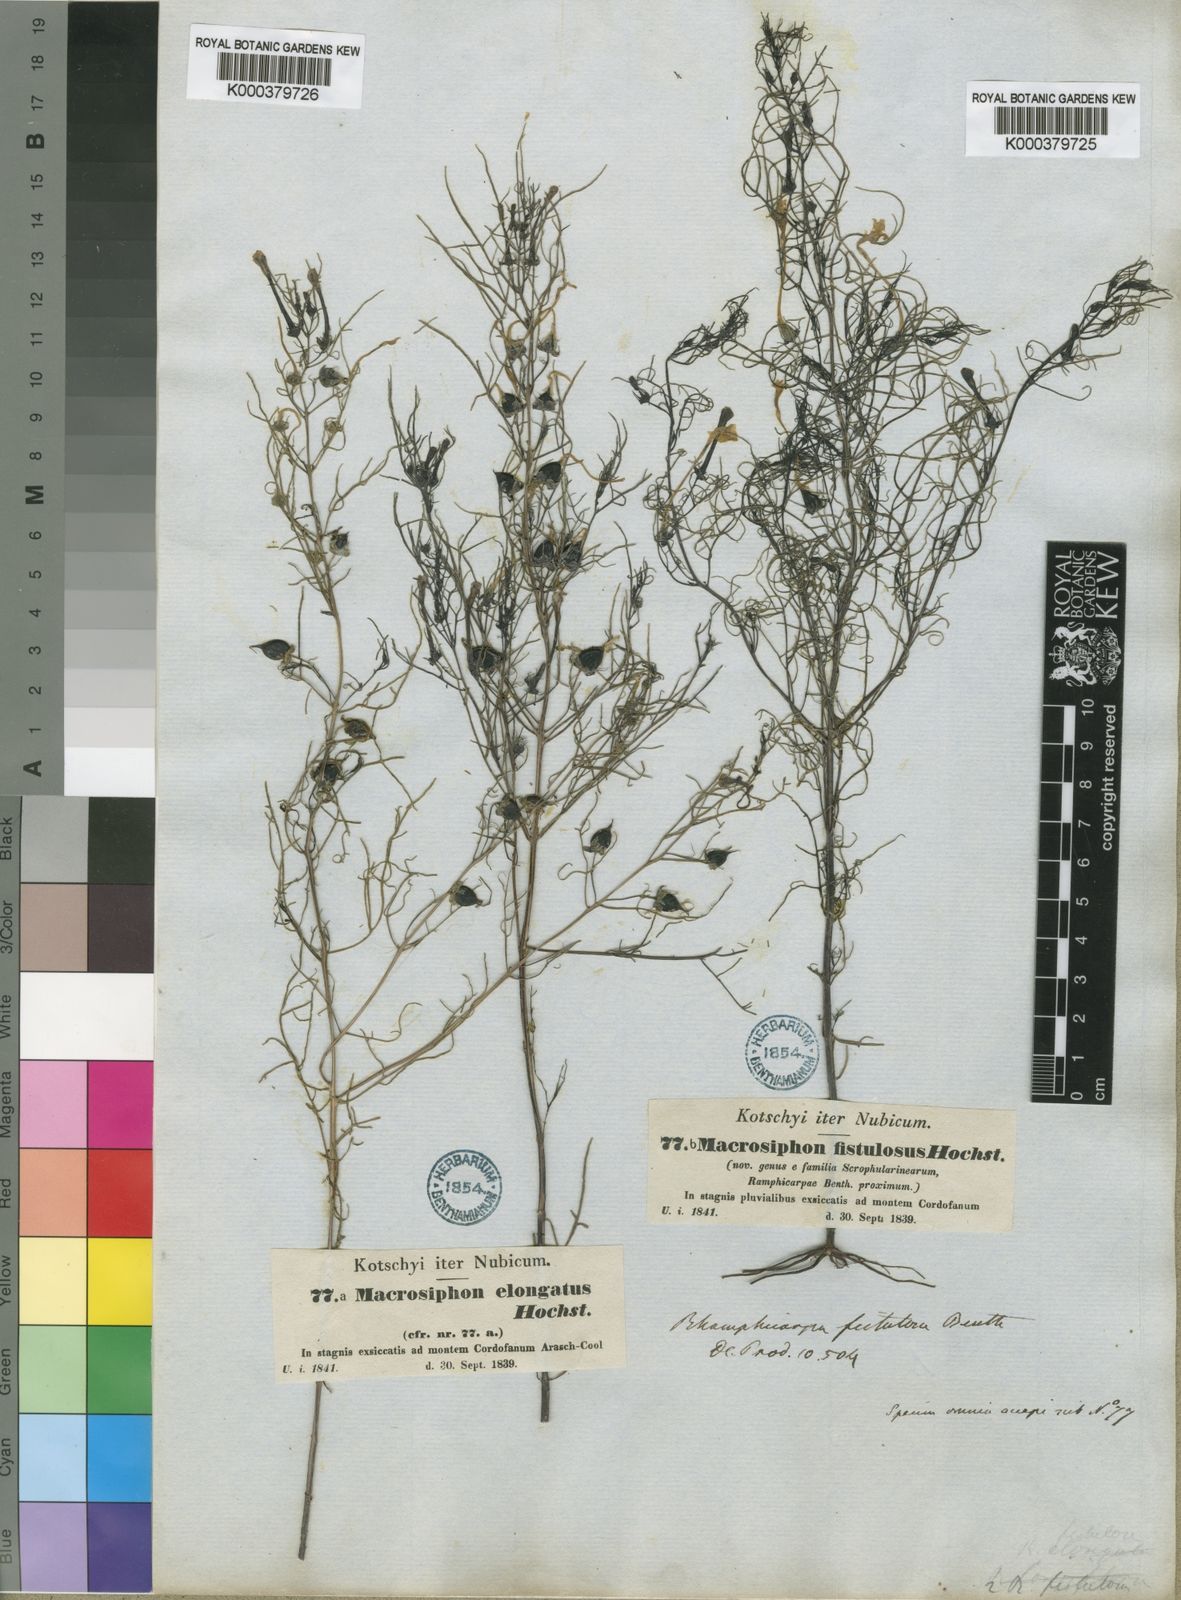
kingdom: Plantae
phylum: Tracheophyta
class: Magnoliopsida
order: Lamiales
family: Orobanchaceae
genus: Rhamphicarpa
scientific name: Rhamphicarpa fistulosa
